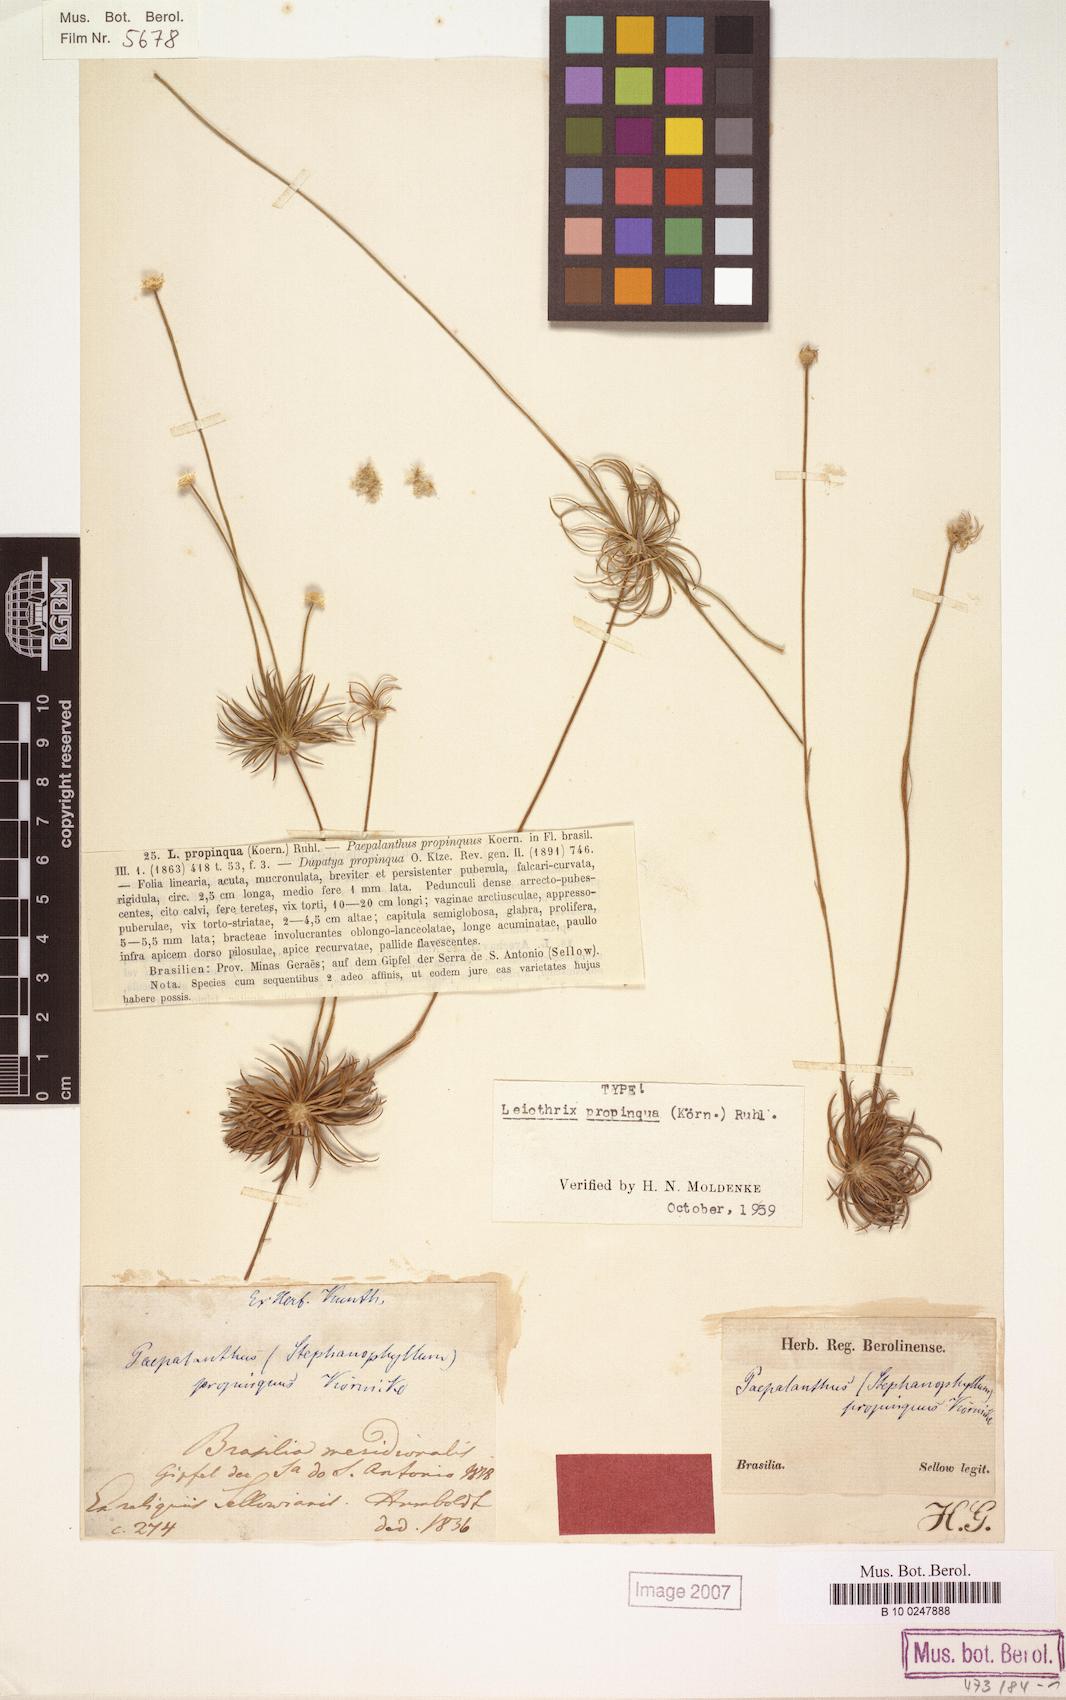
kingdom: Plantae
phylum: Tracheophyta
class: Liliopsida
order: Poales
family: Eriocaulaceae
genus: Leiothrix
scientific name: Leiothrix propinqua
